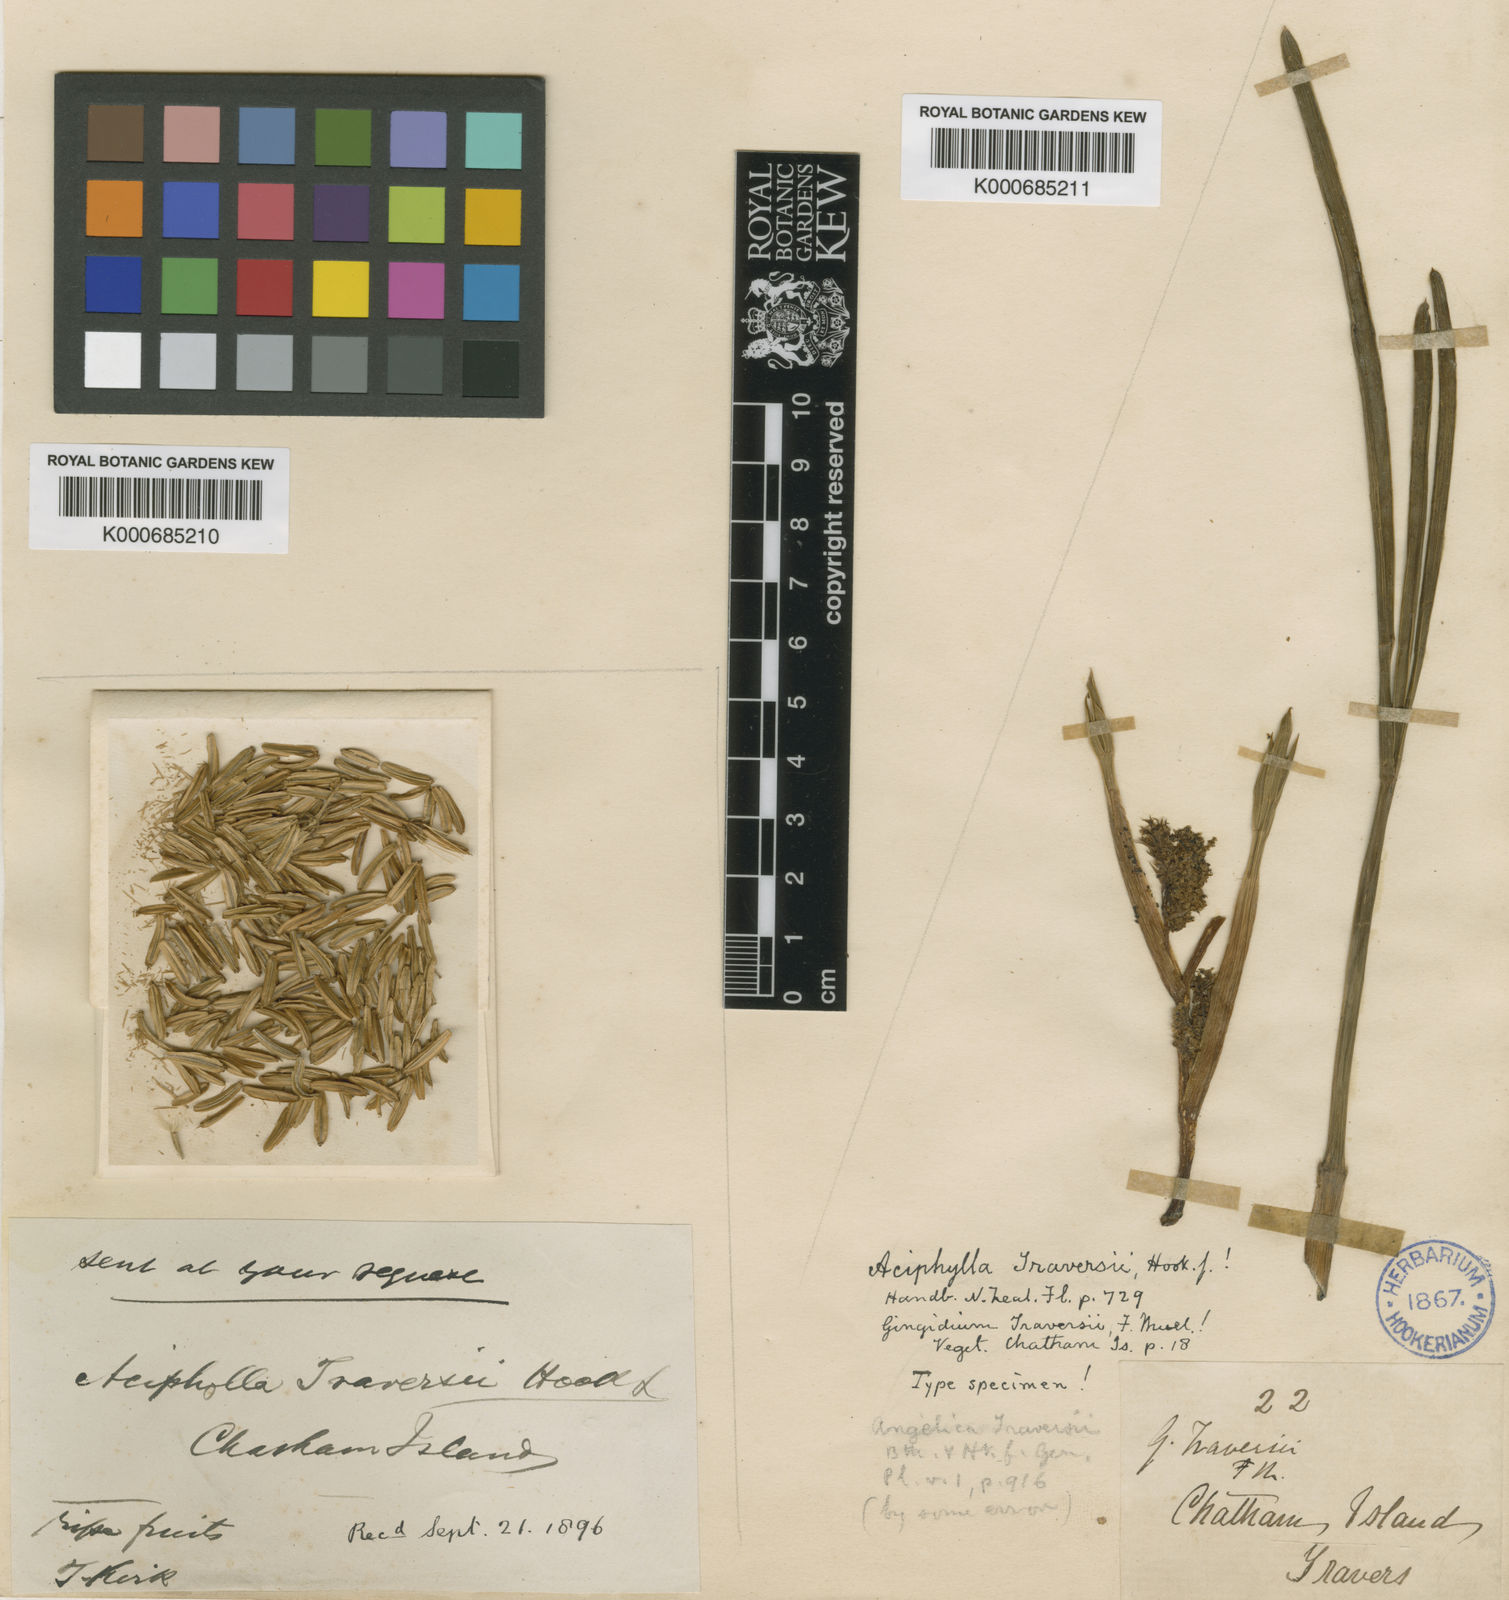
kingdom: Plantae
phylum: Tracheophyta
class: Magnoliopsida
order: Apiales
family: Apiaceae
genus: Aciphylla
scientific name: Aciphylla traversii
